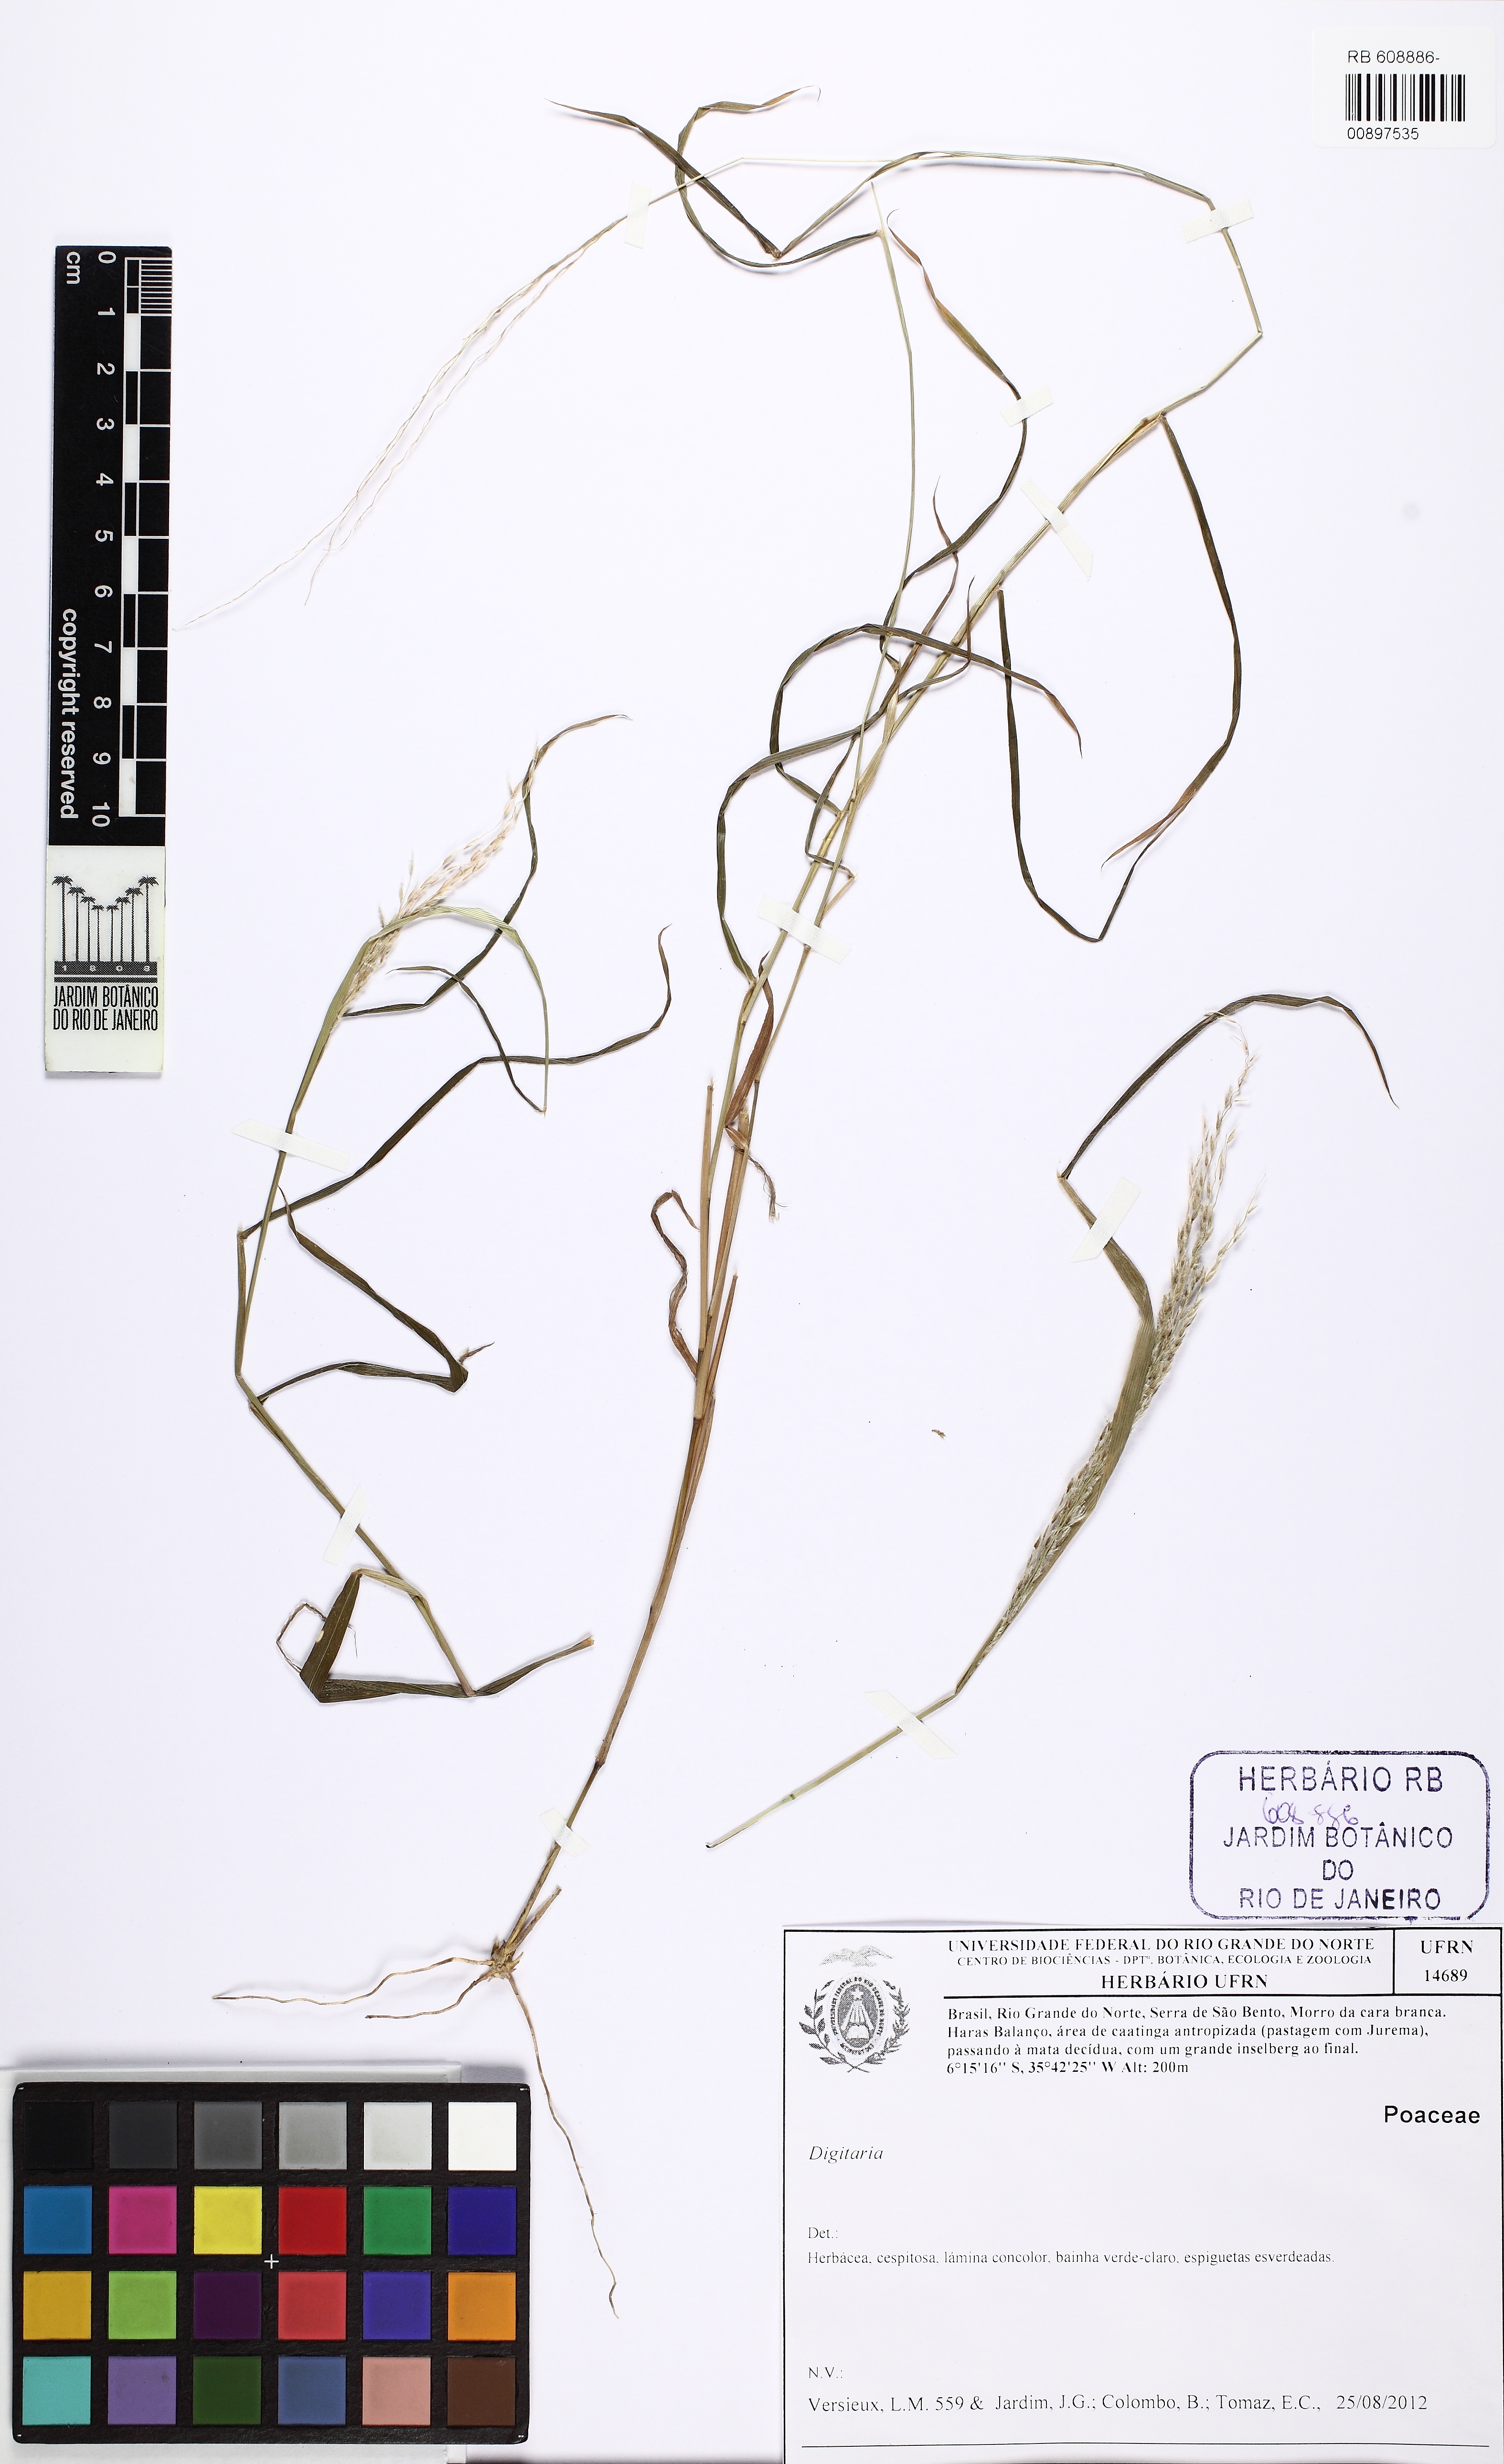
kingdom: Plantae
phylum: Tracheophyta
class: Liliopsida
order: Poales
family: Poaceae
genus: Digitaria
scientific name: Digitaria
